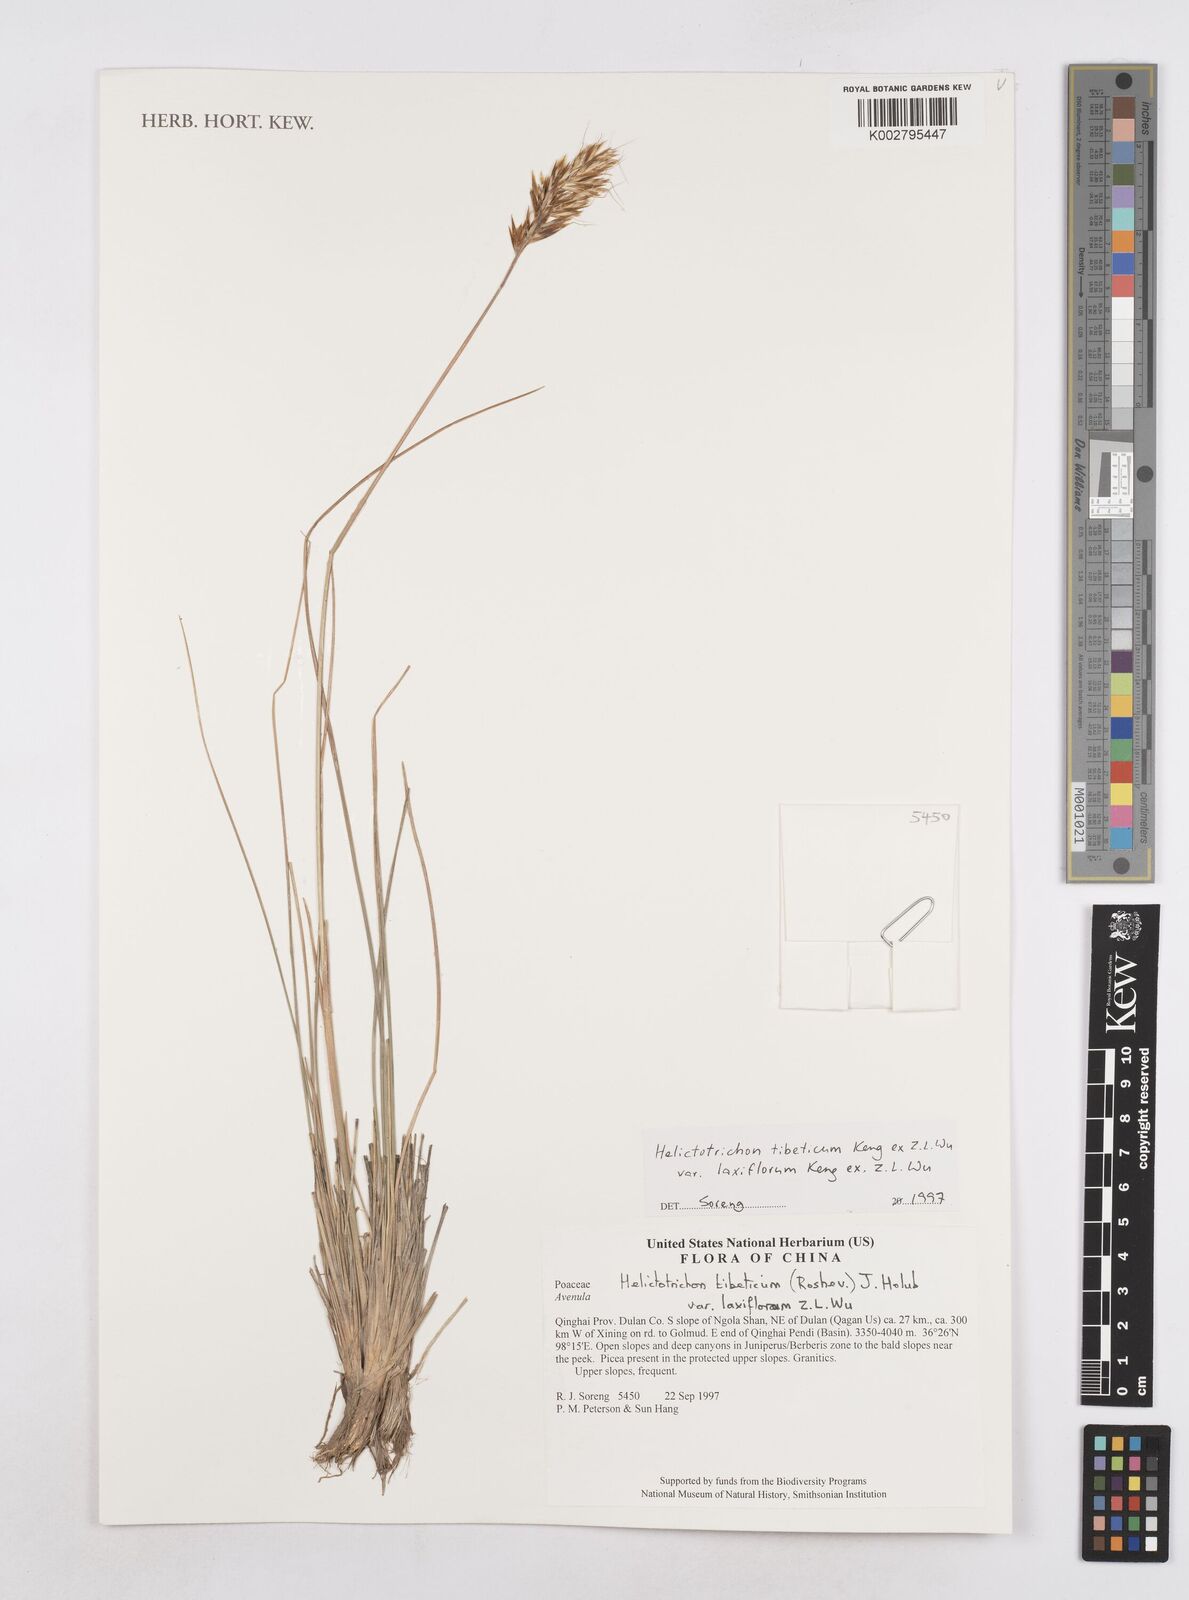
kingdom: Plantae
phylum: Tracheophyta
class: Liliopsida
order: Poales
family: Poaceae
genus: Helictotrichon
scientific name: Helictotrichon tibeticum
